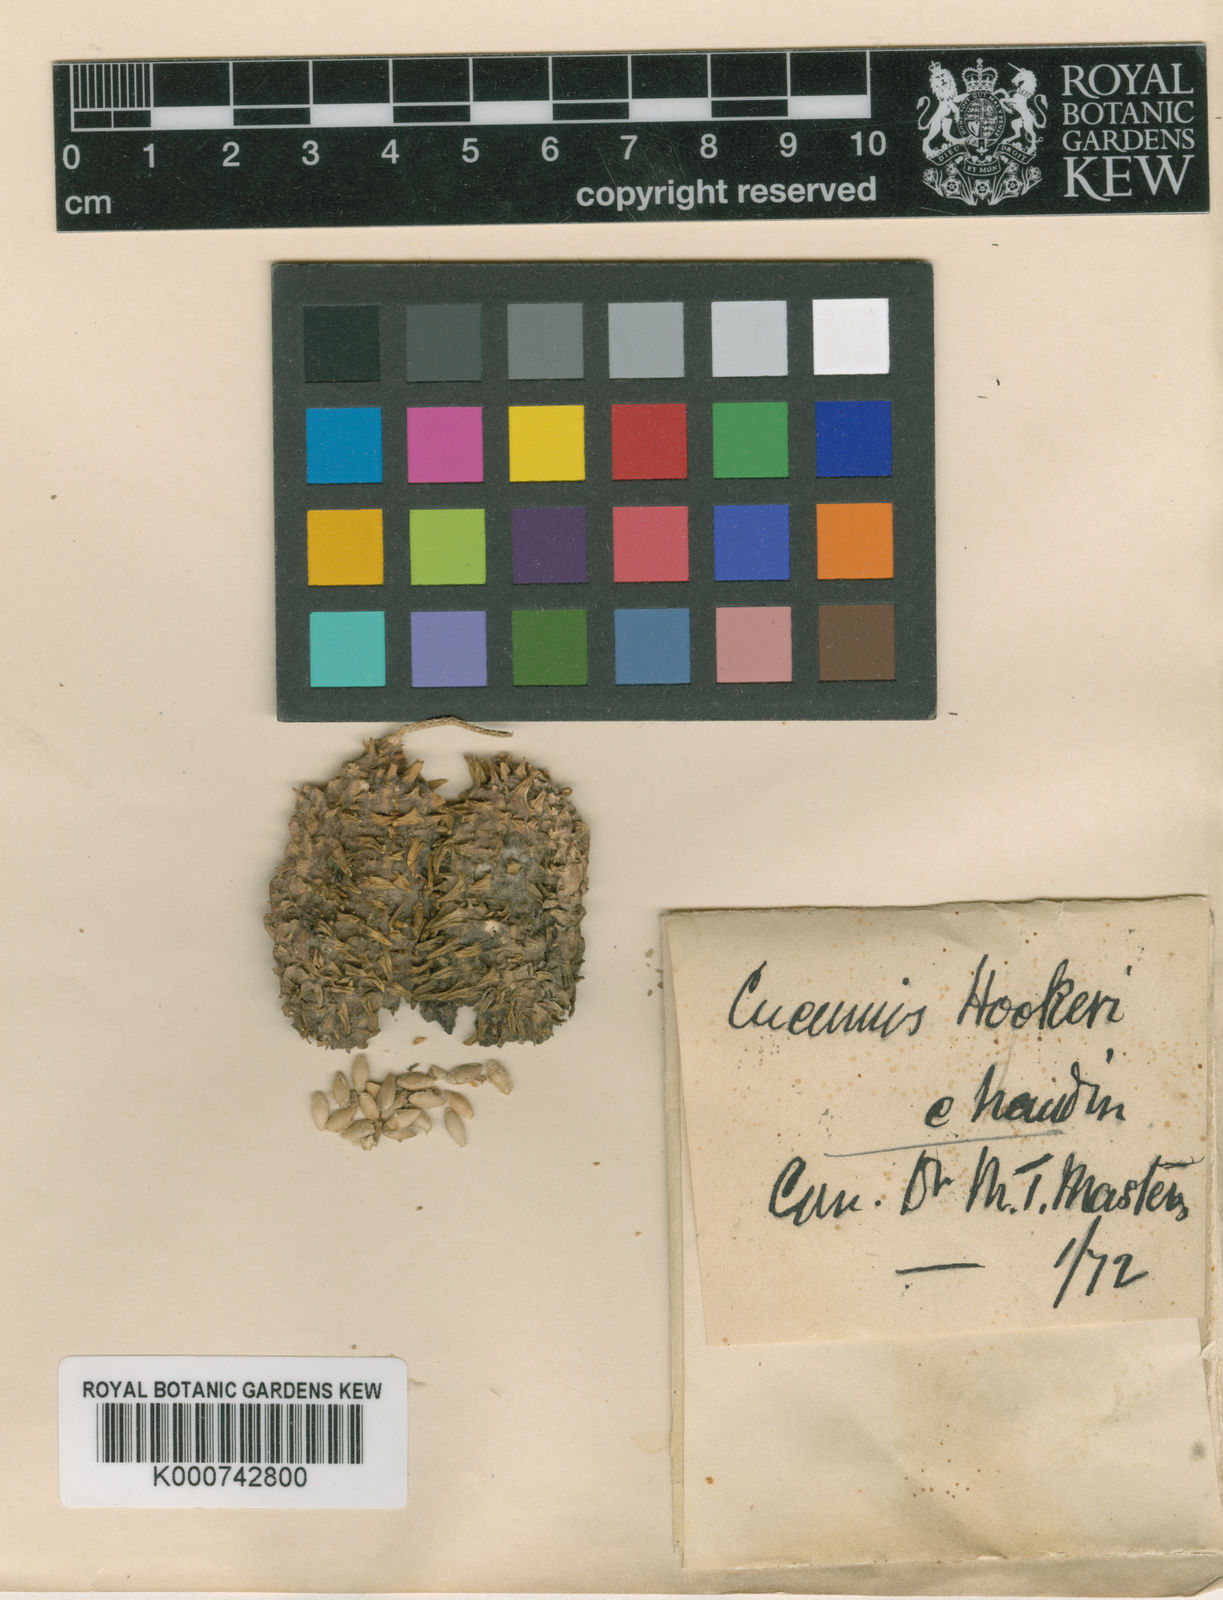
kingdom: Plantae
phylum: Tracheophyta
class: Magnoliopsida
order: Cucurbitales
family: Cucurbitaceae
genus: Cucumis
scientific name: Cucumis anguria
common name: West indian gherkin
